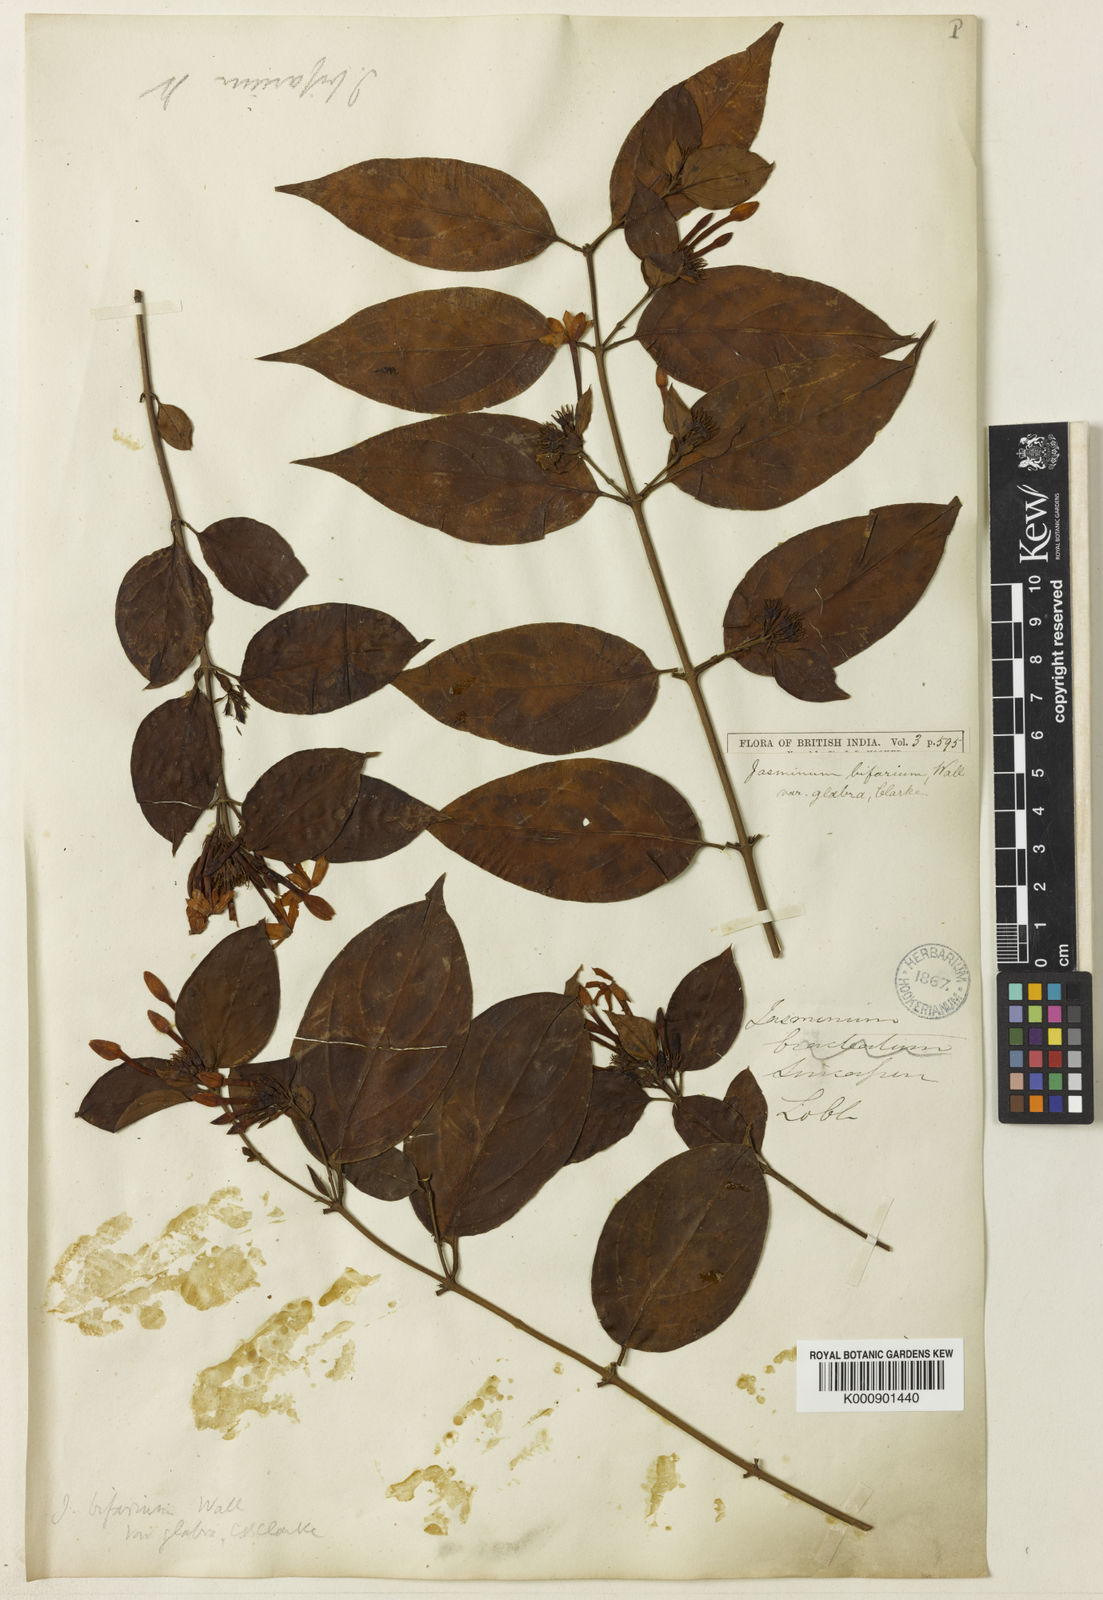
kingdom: Plantae
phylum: Tracheophyta
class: Magnoliopsida
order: Lamiales
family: Oleaceae
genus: Jasminum
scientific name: Jasminum elongatum
